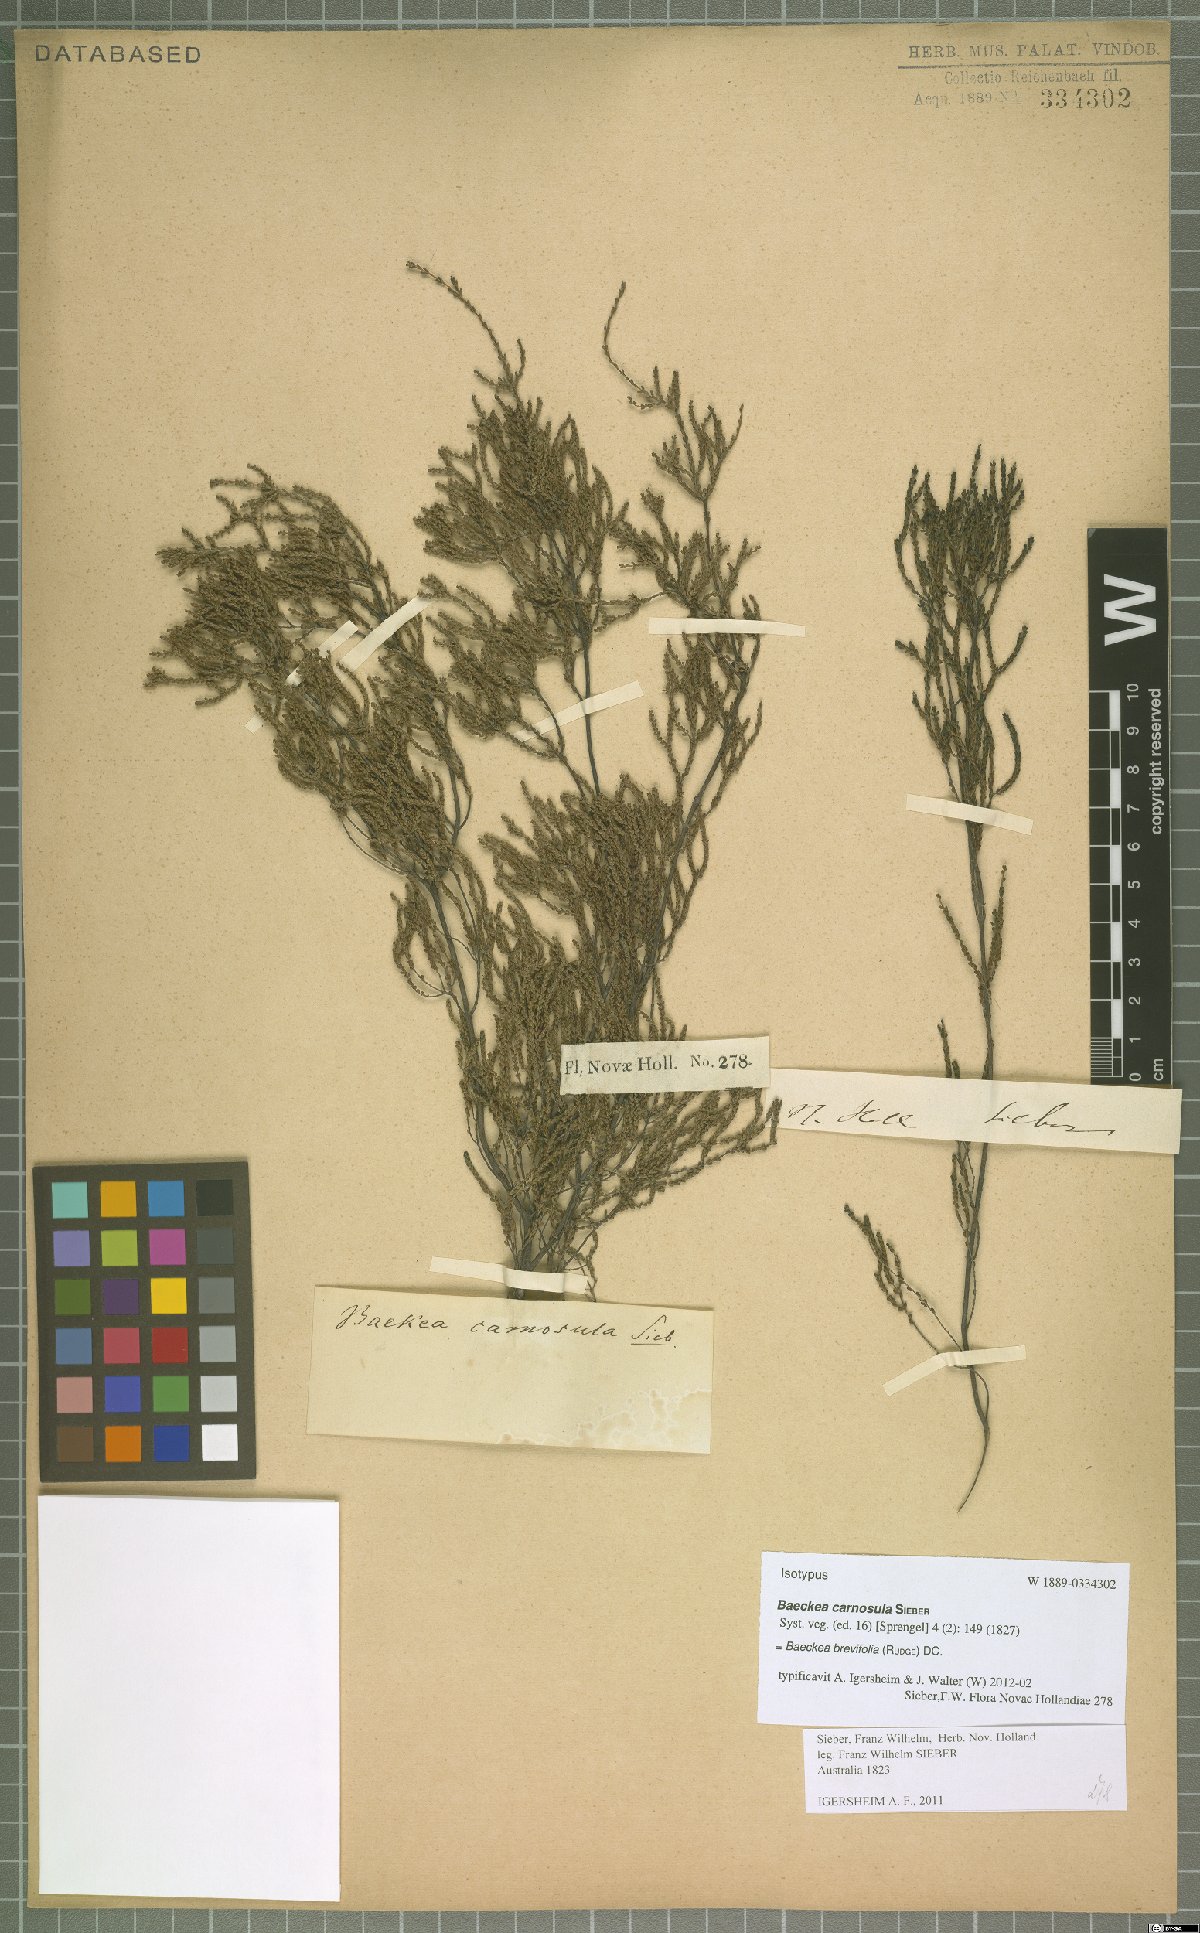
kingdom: Plantae
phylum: Tracheophyta
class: Magnoliopsida
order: Myrtales
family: Myrtaceae
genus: Baeckea
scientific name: Baeckea brevifolia
